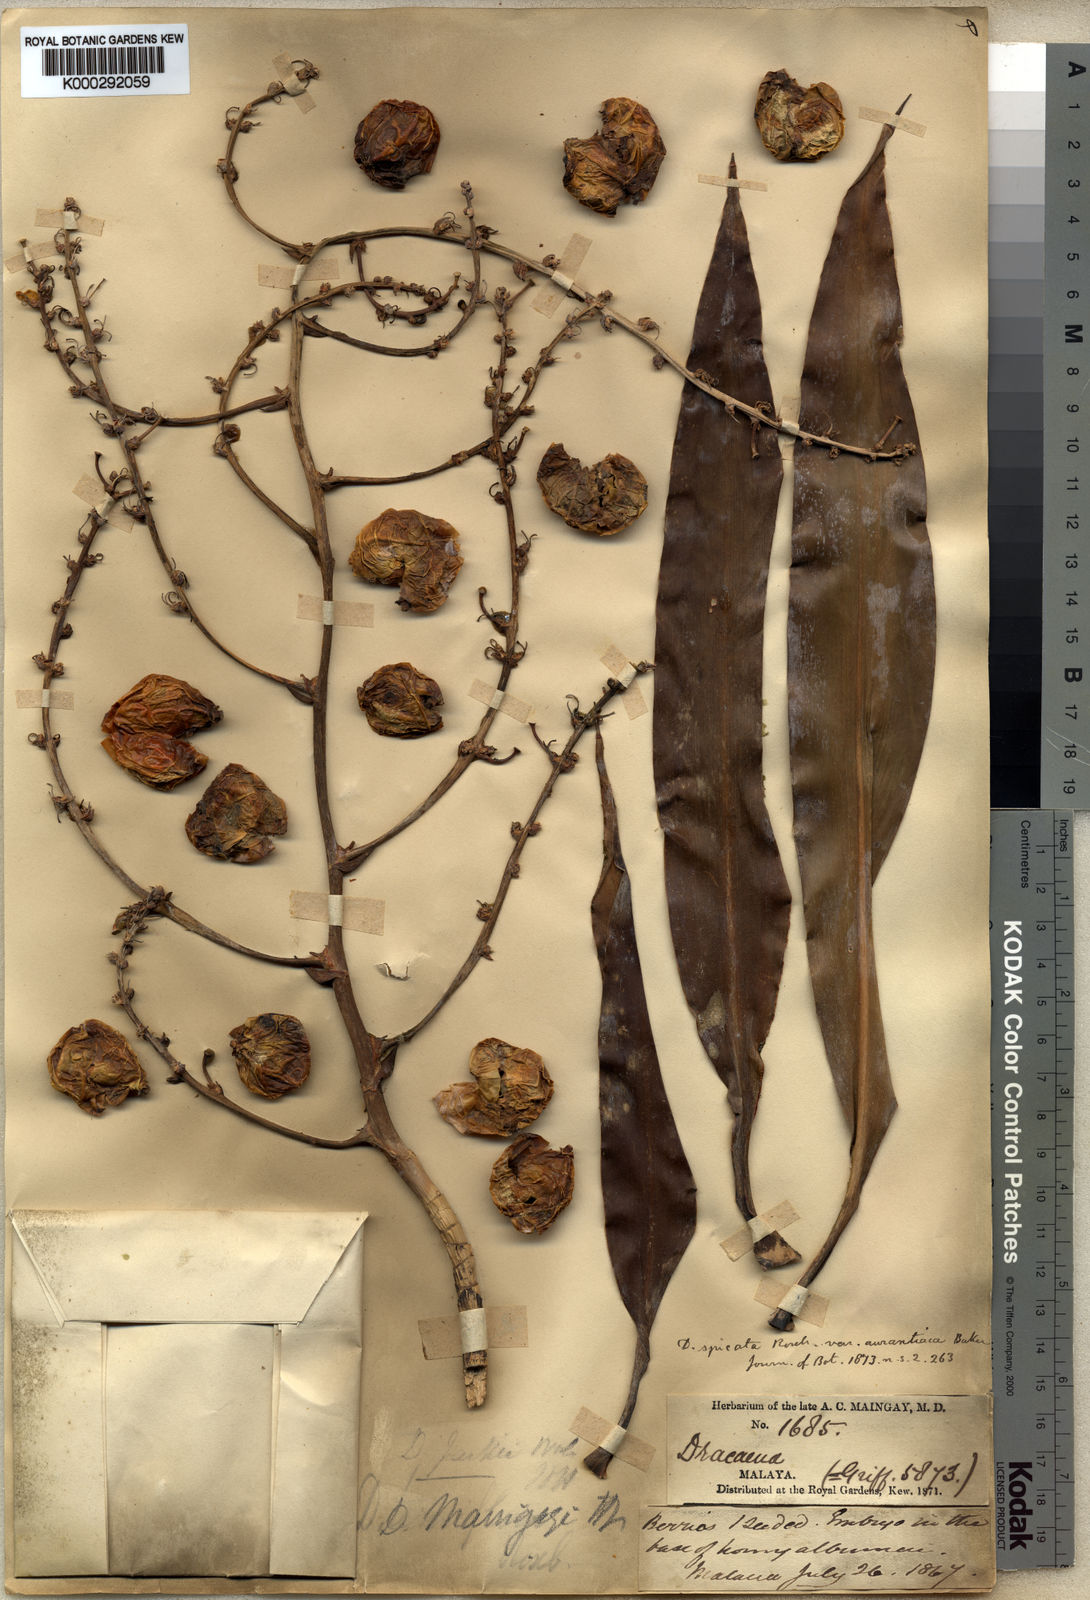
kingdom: Plantae
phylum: Tracheophyta
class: Liliopsida
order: Asparagales
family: Asparagaceae
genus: Dracaena
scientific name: Dracaena maingayi
